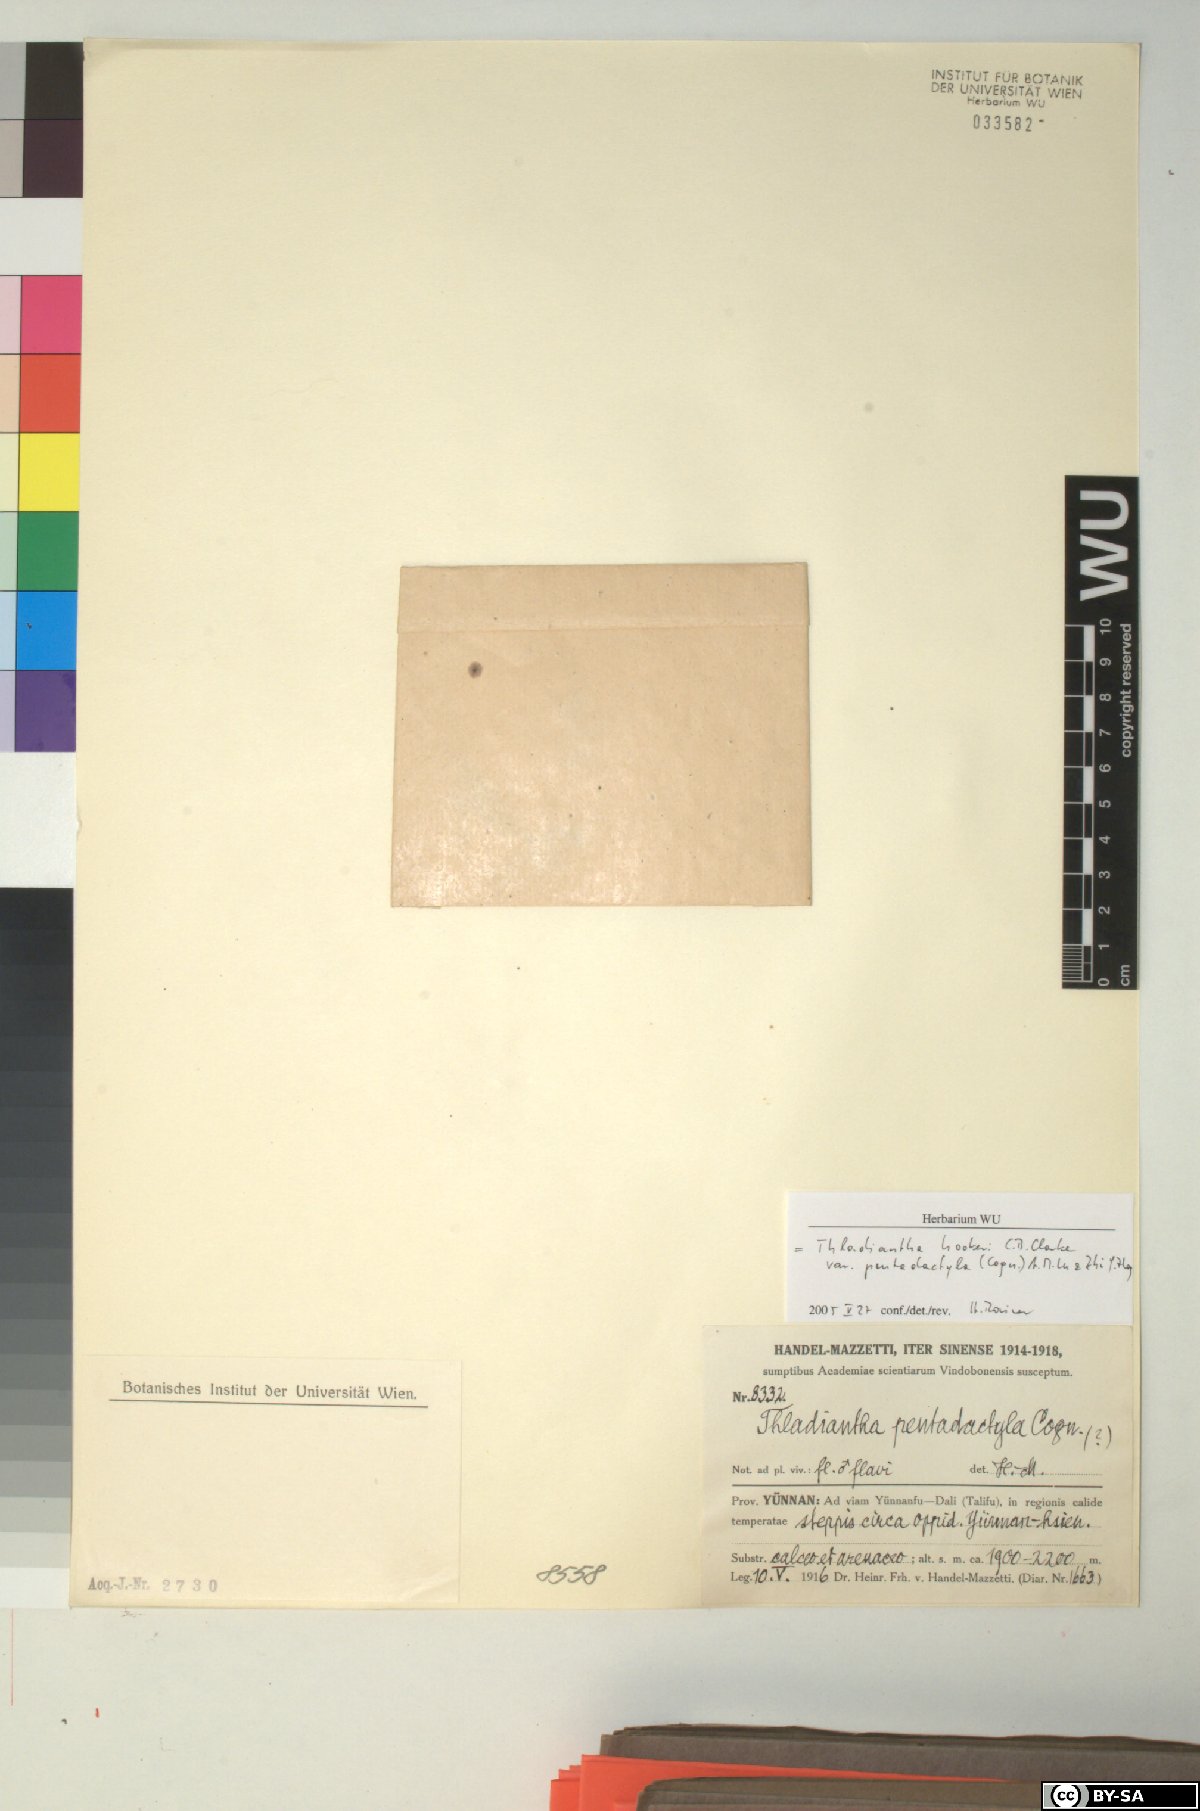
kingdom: Plantae
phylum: Tracheophyta
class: Magnoliopsida
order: Cucurbitales
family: Cucurbitaceae
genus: Thladiantha
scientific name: Thladiantha hookeri
